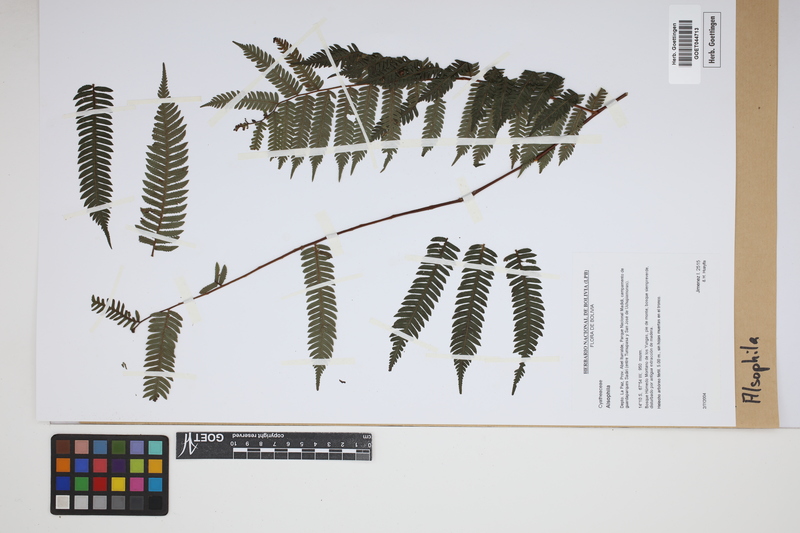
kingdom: Plantae
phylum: Tracheophyta
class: Polypodiopsida
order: Cyatheales
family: Cyatheaceae
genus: Alsophila
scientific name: Alsophila
